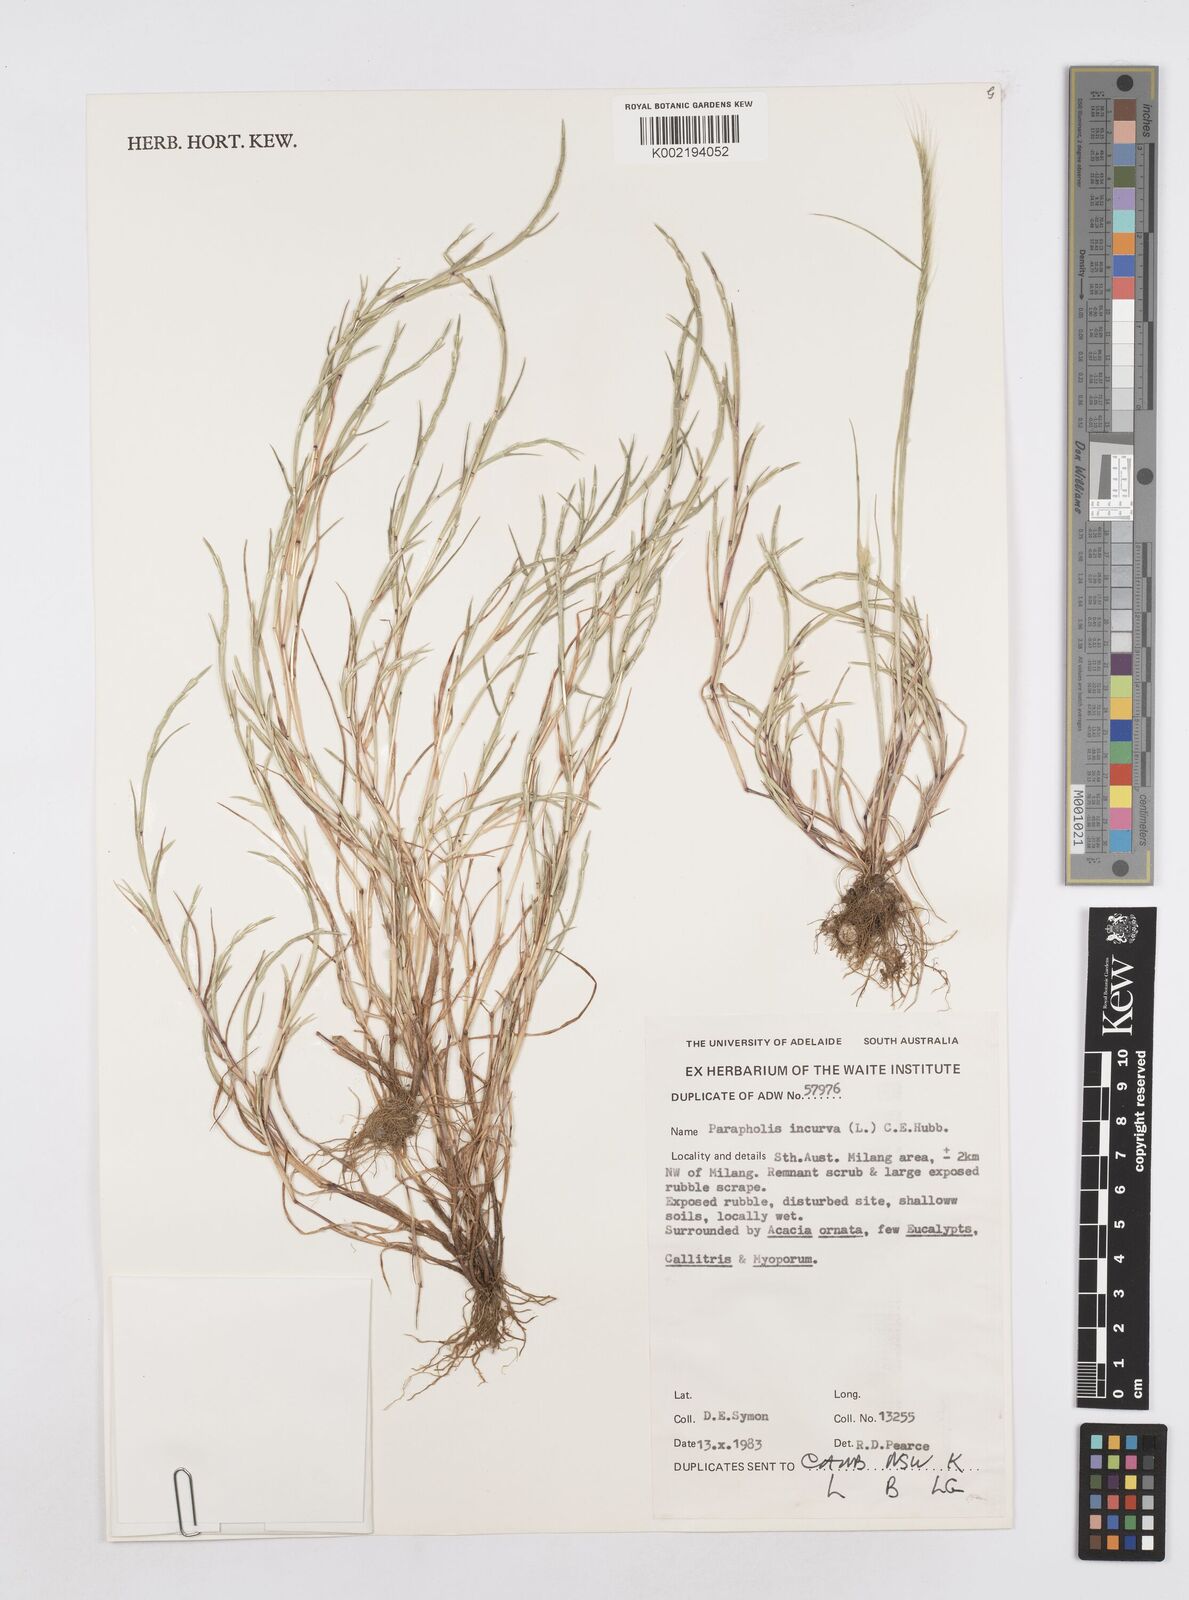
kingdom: Plantae
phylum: Tracheophyta
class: Liliopsida
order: Poales
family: Poaceae
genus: Parapholis
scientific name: Parapholis incurva
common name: Curved sicklegrass
